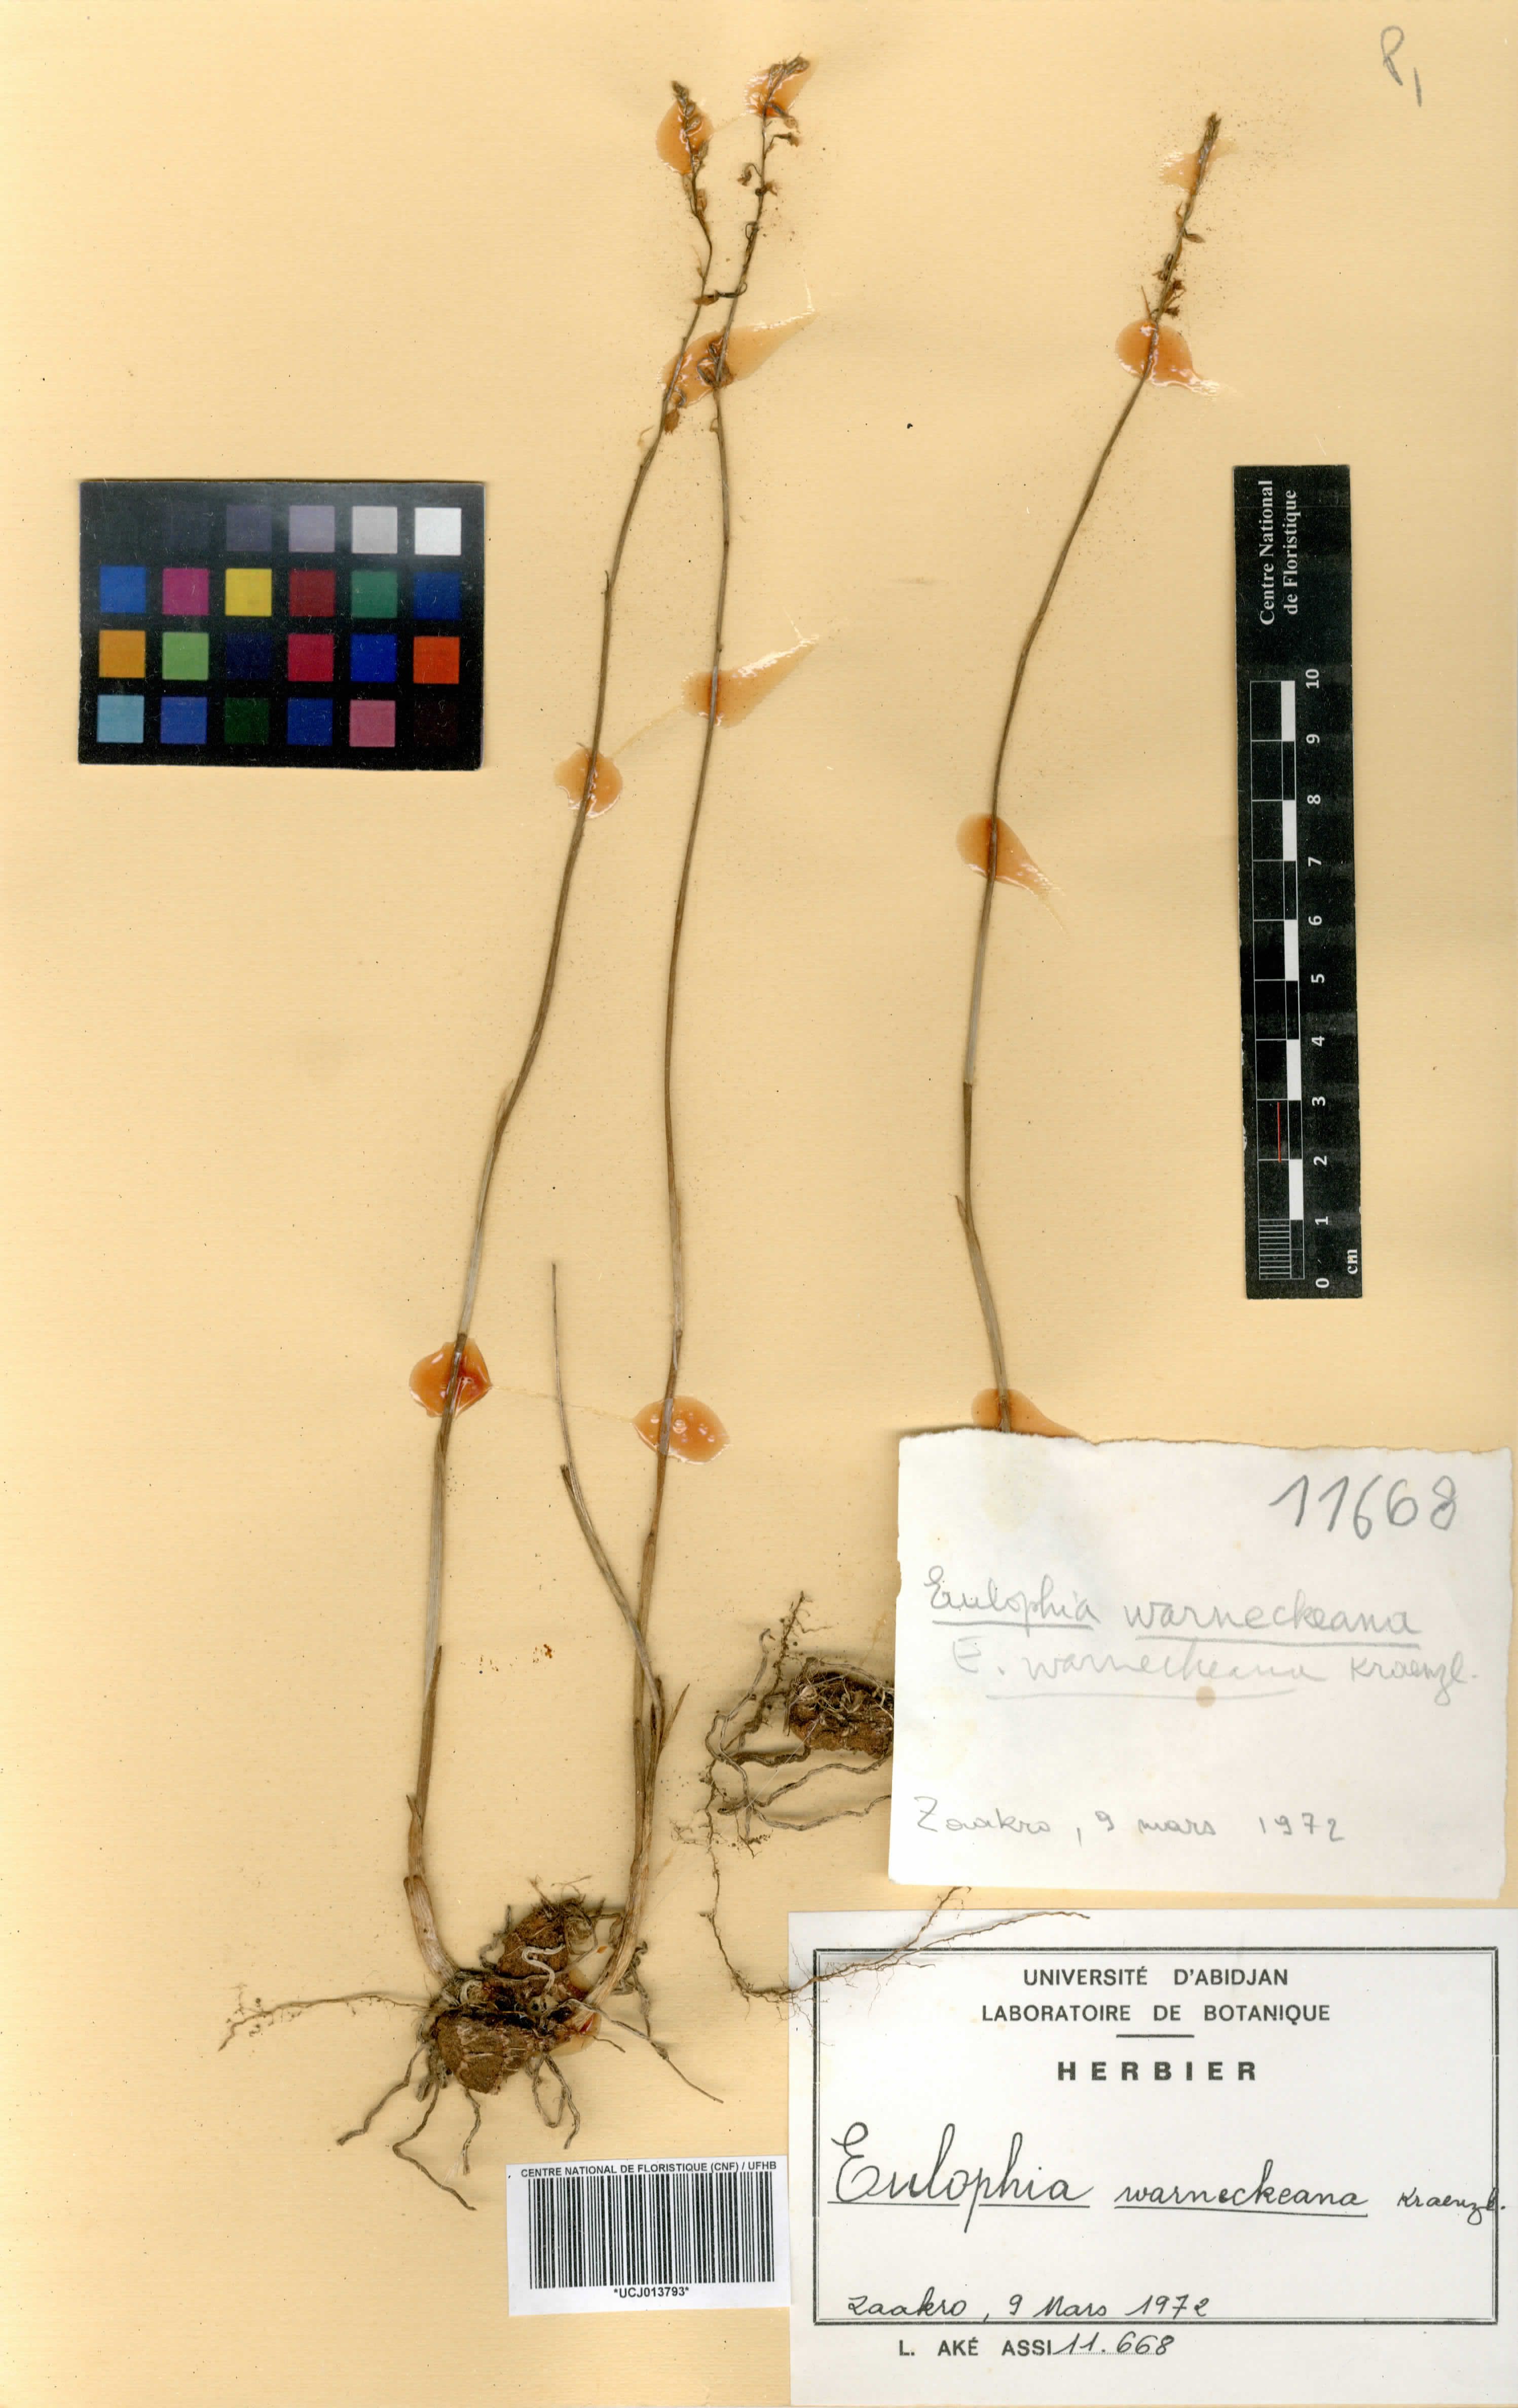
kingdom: Plantae
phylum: Tracheophyta
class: Liliopsida
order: Asparagales
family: Orchidaceae
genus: Eulophia
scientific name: Eulophia milnei
